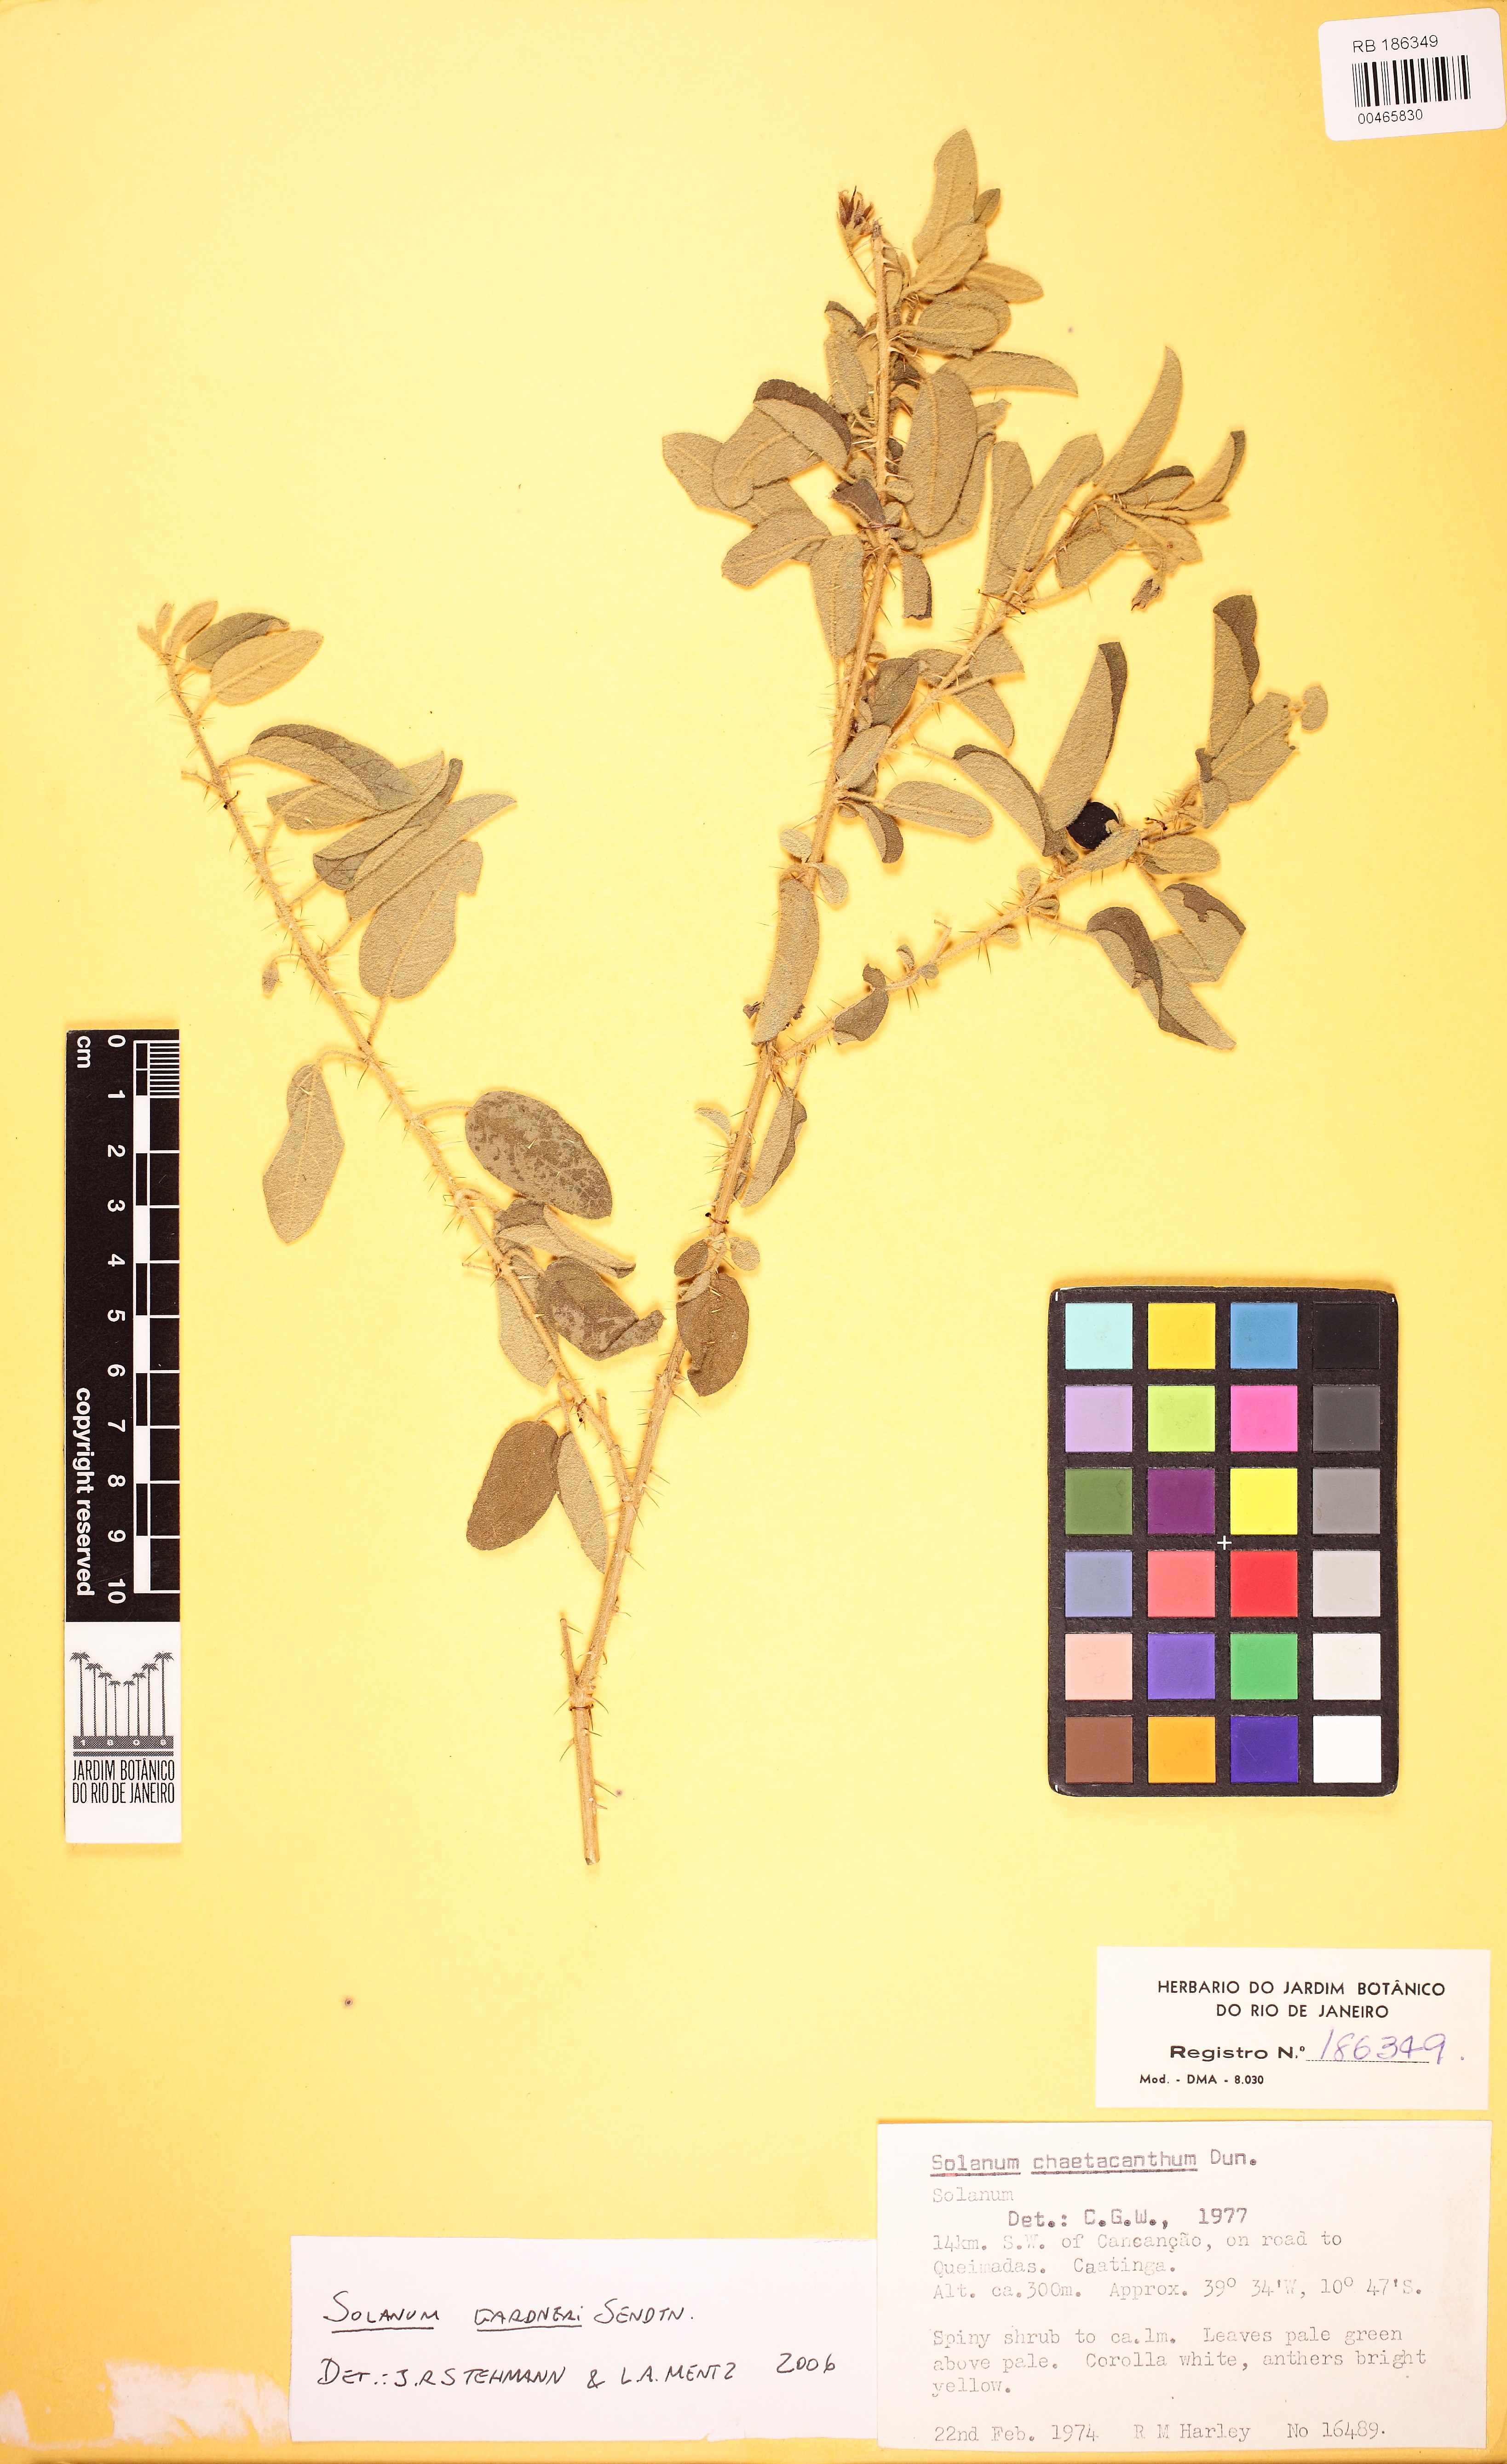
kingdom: Plantae
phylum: Tracheophyta
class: Magnoliopsida
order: Solanales
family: Solanaceae
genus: Solanum
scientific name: Solanum gardneri
